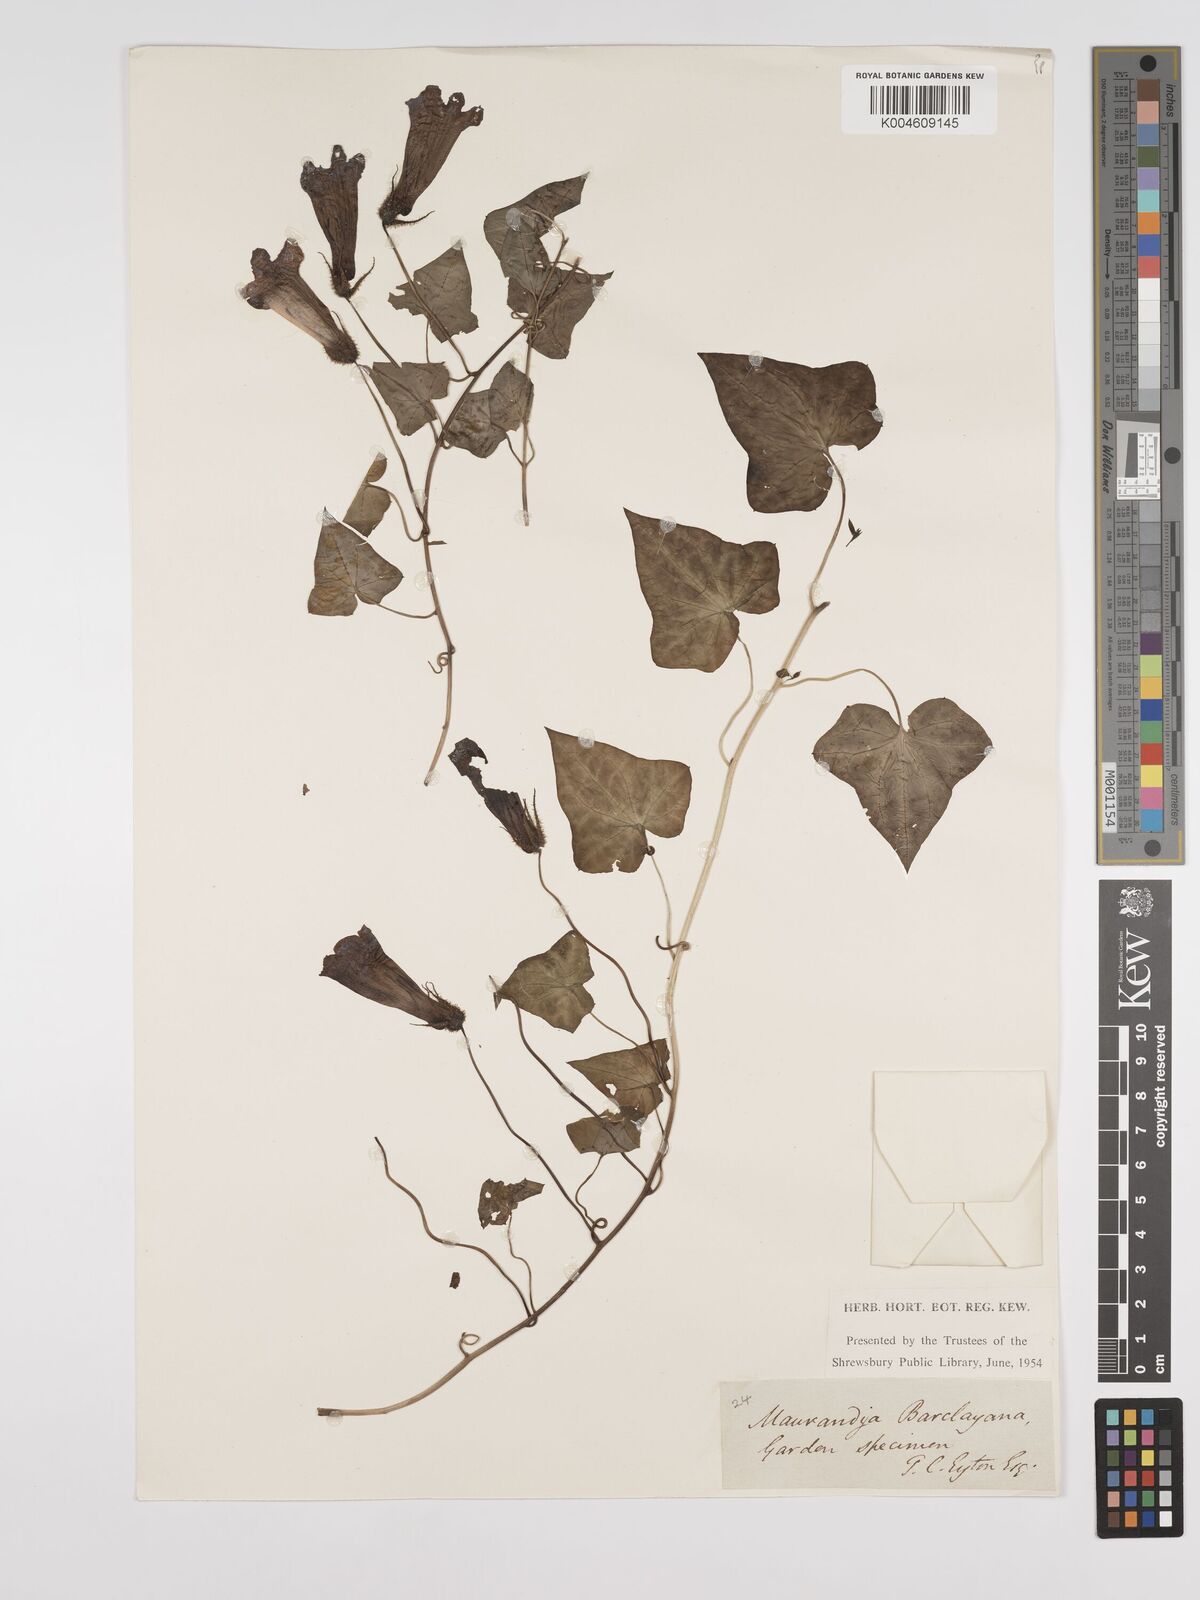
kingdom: Plantae
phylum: Tracheophyta
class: Magnoliopsida
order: Lamiales
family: Plantaginaceae
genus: Maurandya
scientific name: Maurandya barclayana
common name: Mexican viper
